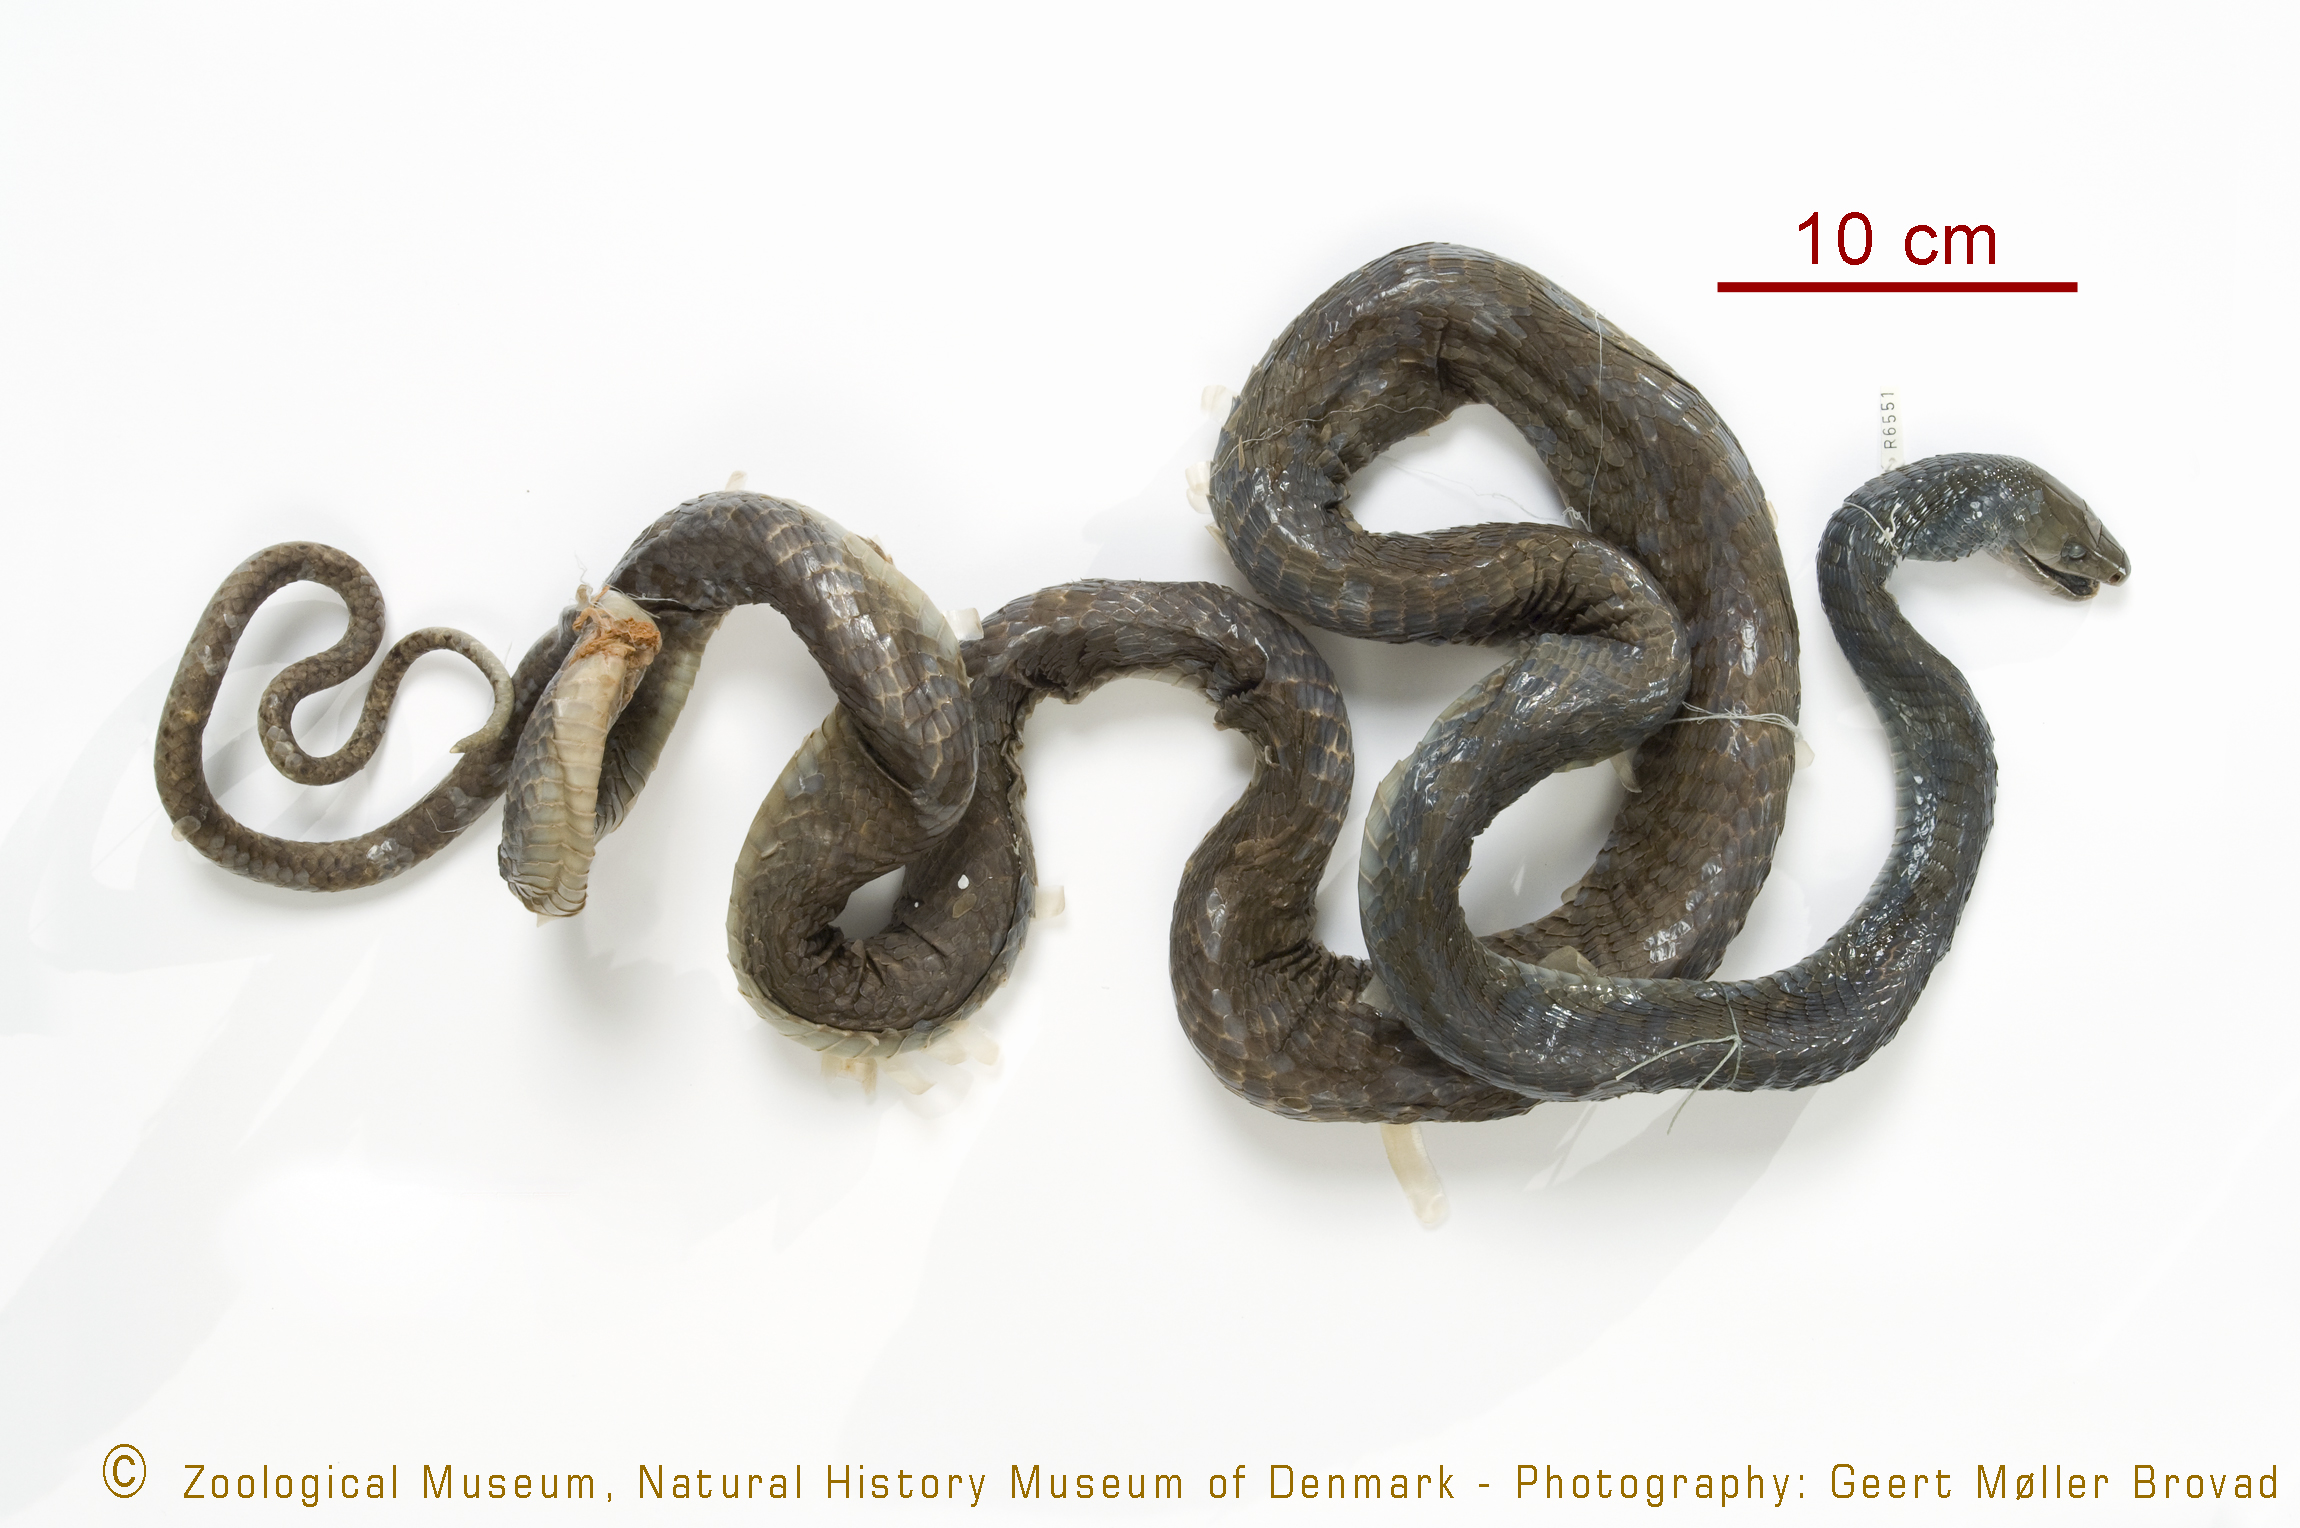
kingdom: Animalia
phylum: Chordata
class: Squamata
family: Elapidae
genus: Dendroaspis
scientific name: Dendroaspis polylepis
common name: Black mamba
